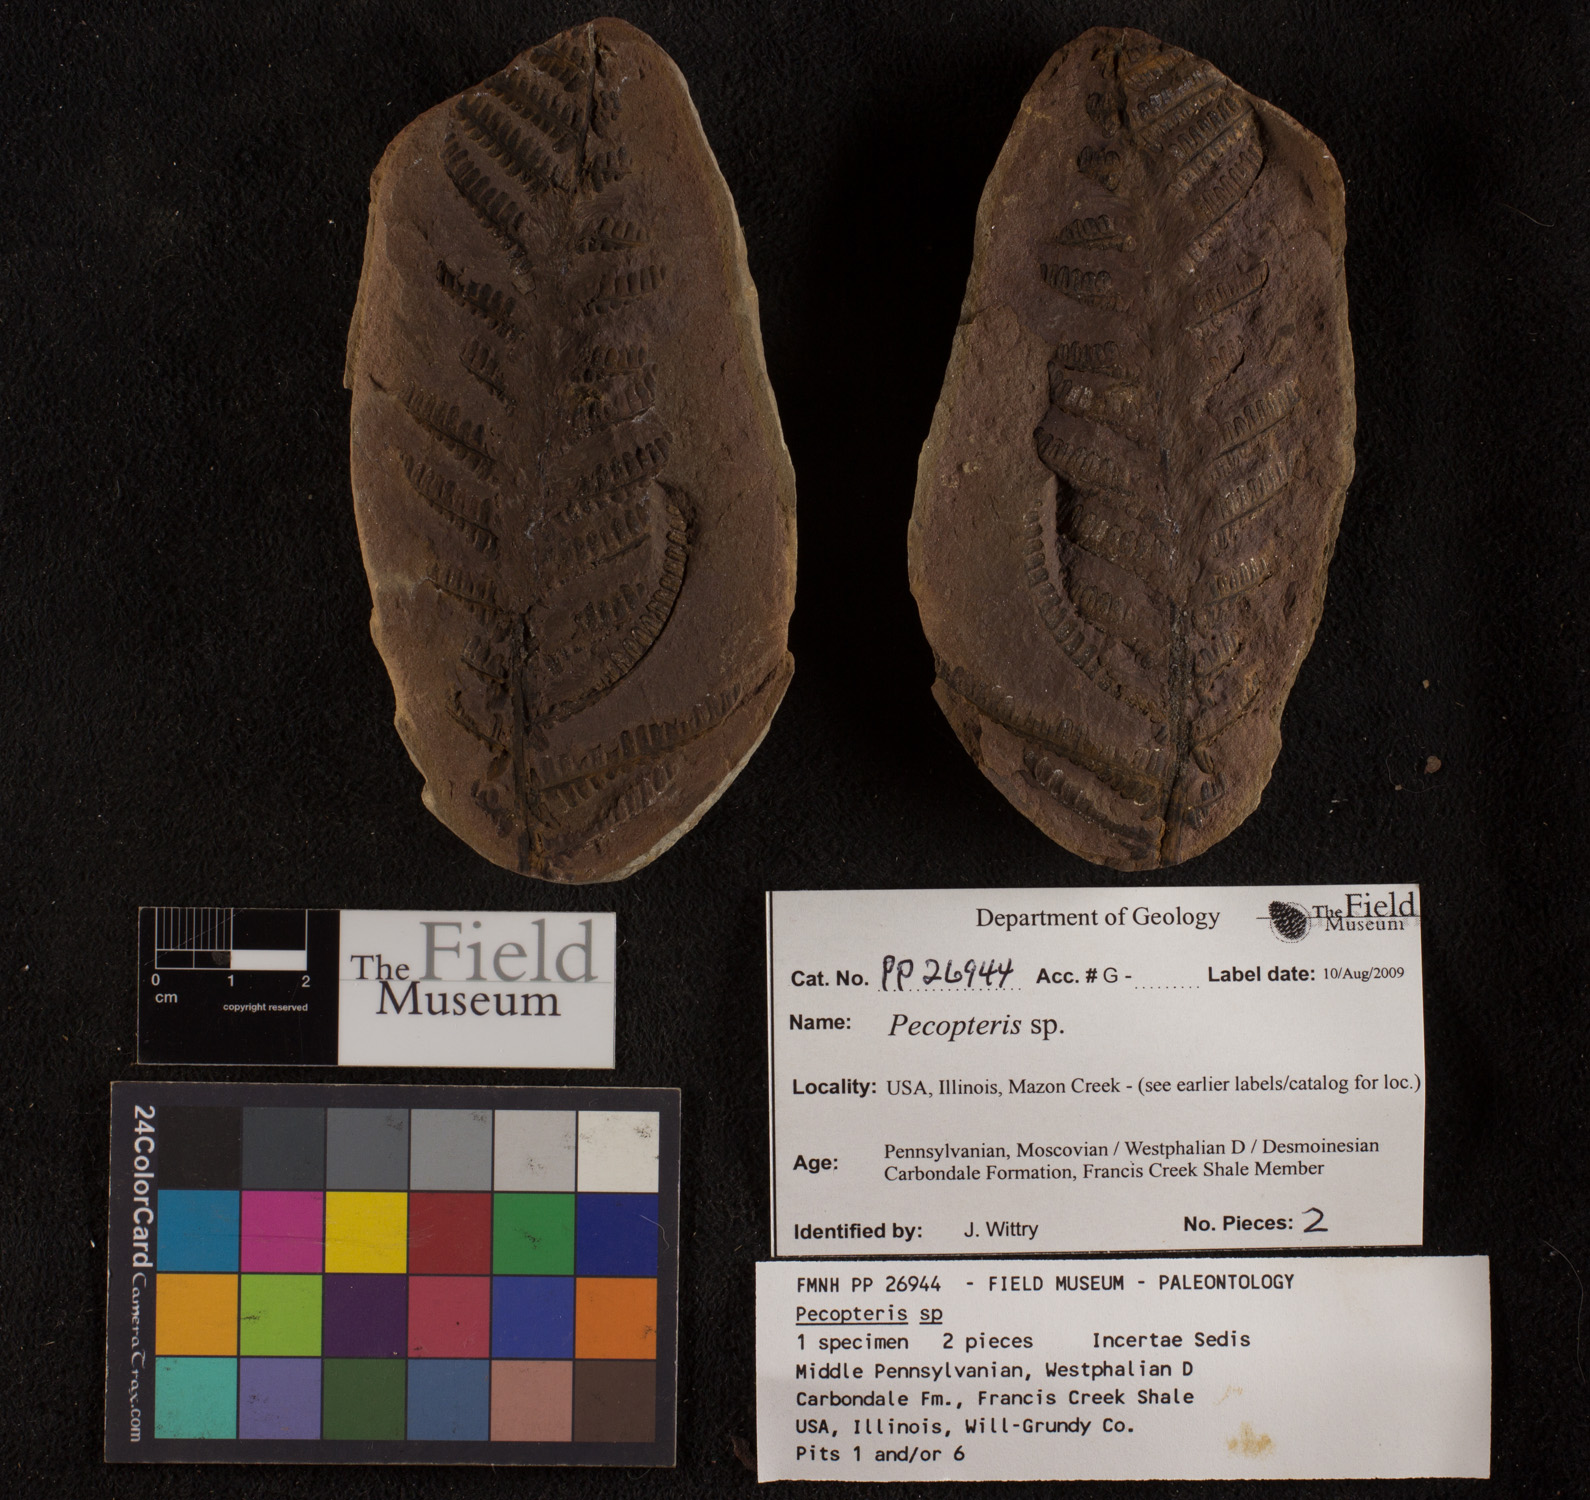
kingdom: Plantae
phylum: Tracheophyta
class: Polypodiopsida
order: Marattiales
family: Asterothecaceae
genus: Pecopteris
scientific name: Pecopteris
